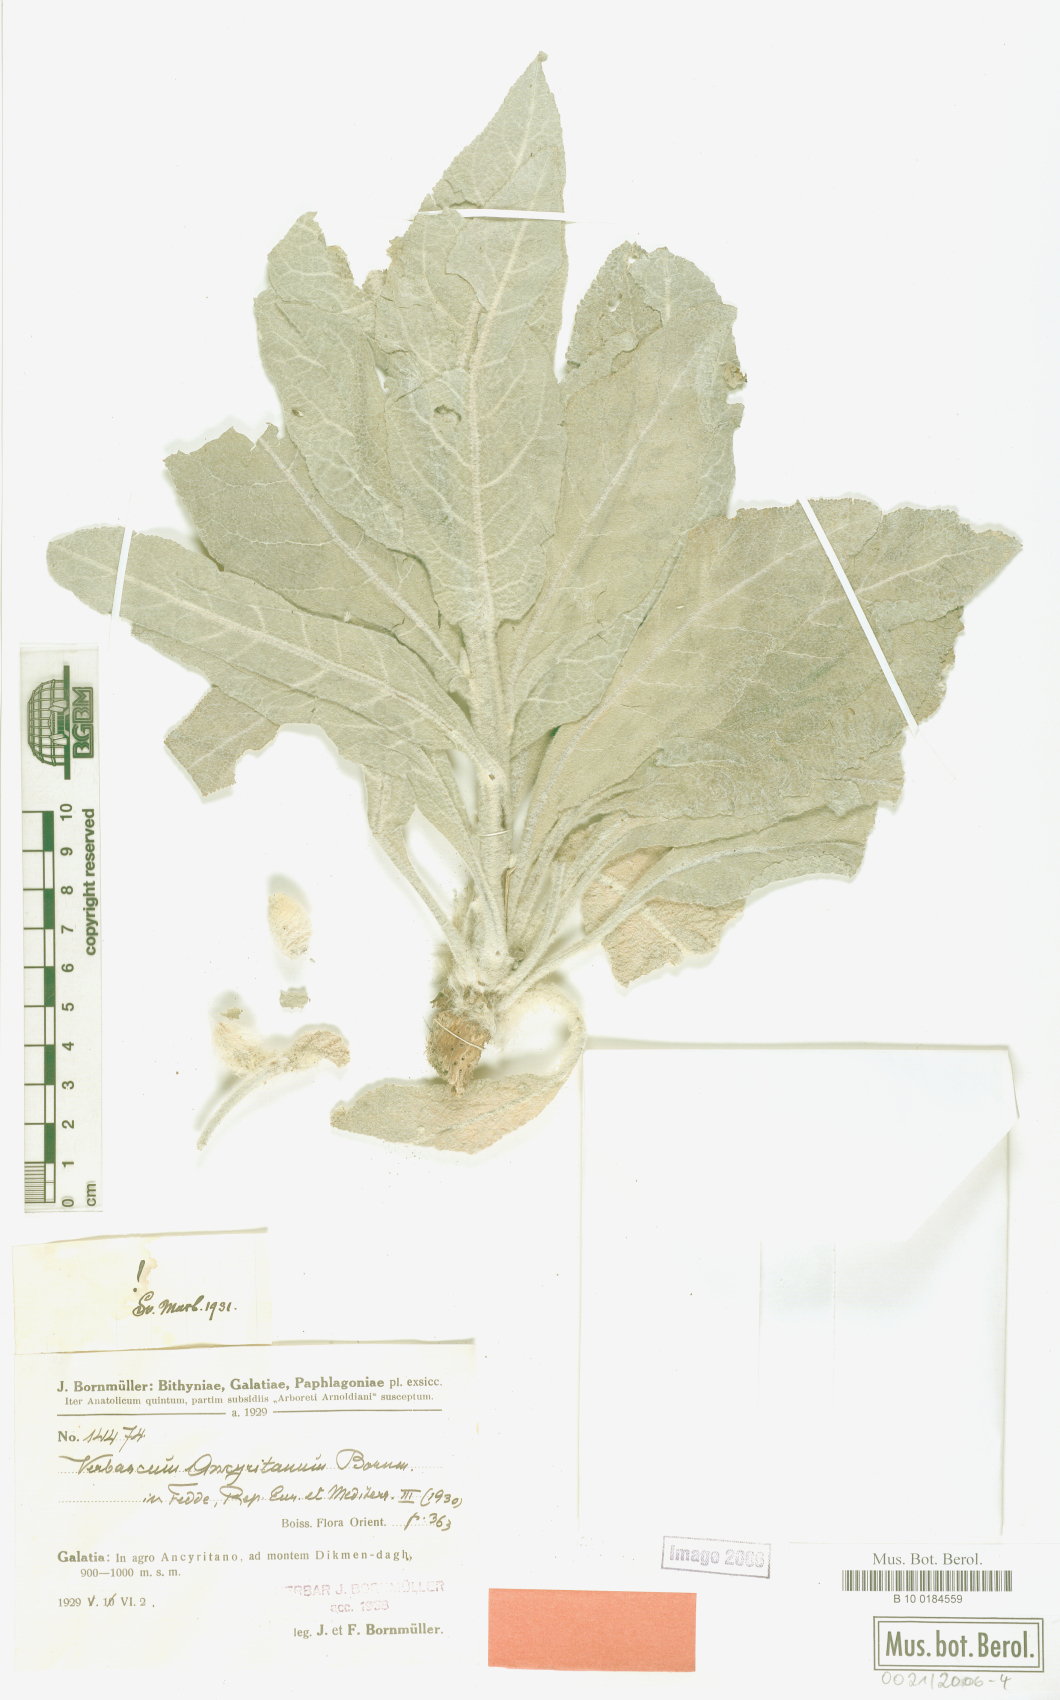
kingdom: Plantae
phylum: Tracheophyta
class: Magnoliopsida
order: Lamiales
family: Scrophulariaceae
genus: Verbascum
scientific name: Verbascum ancyritanum
